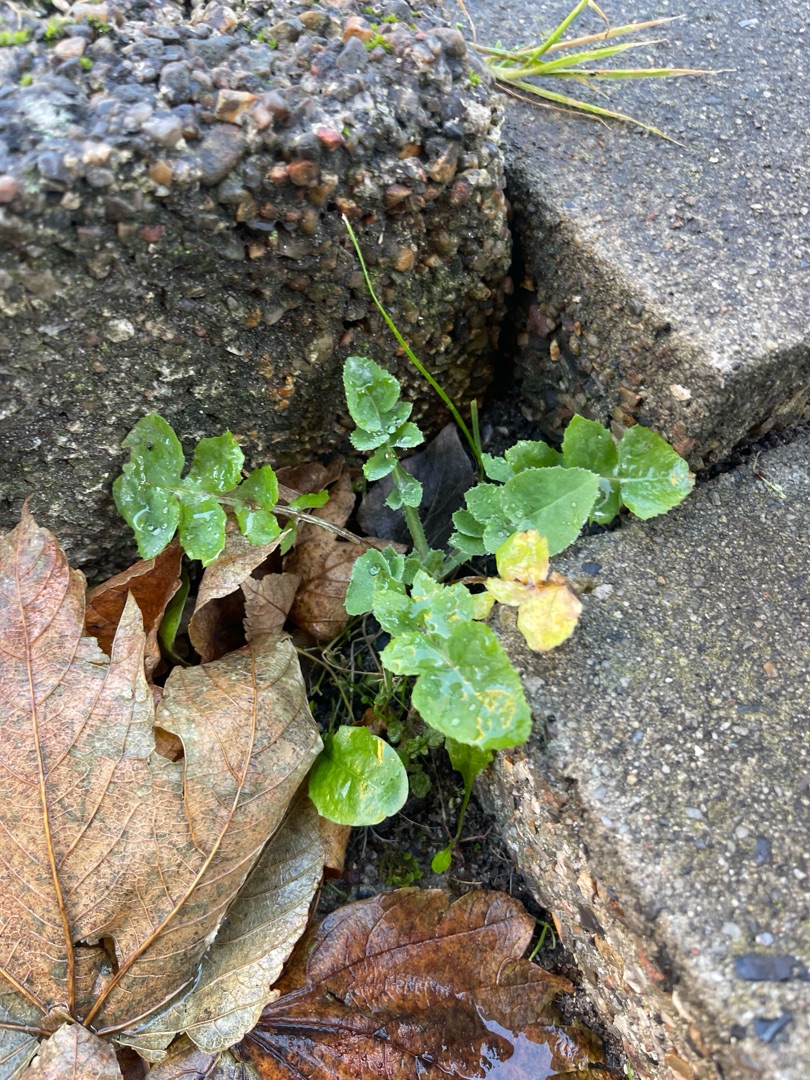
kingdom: Plantae
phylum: Tracheophyta
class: Magnoliopsida
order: Asterales
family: Asteraceae
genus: Sonchus
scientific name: Sonchus oleraceus
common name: Almindelig svinemælk
